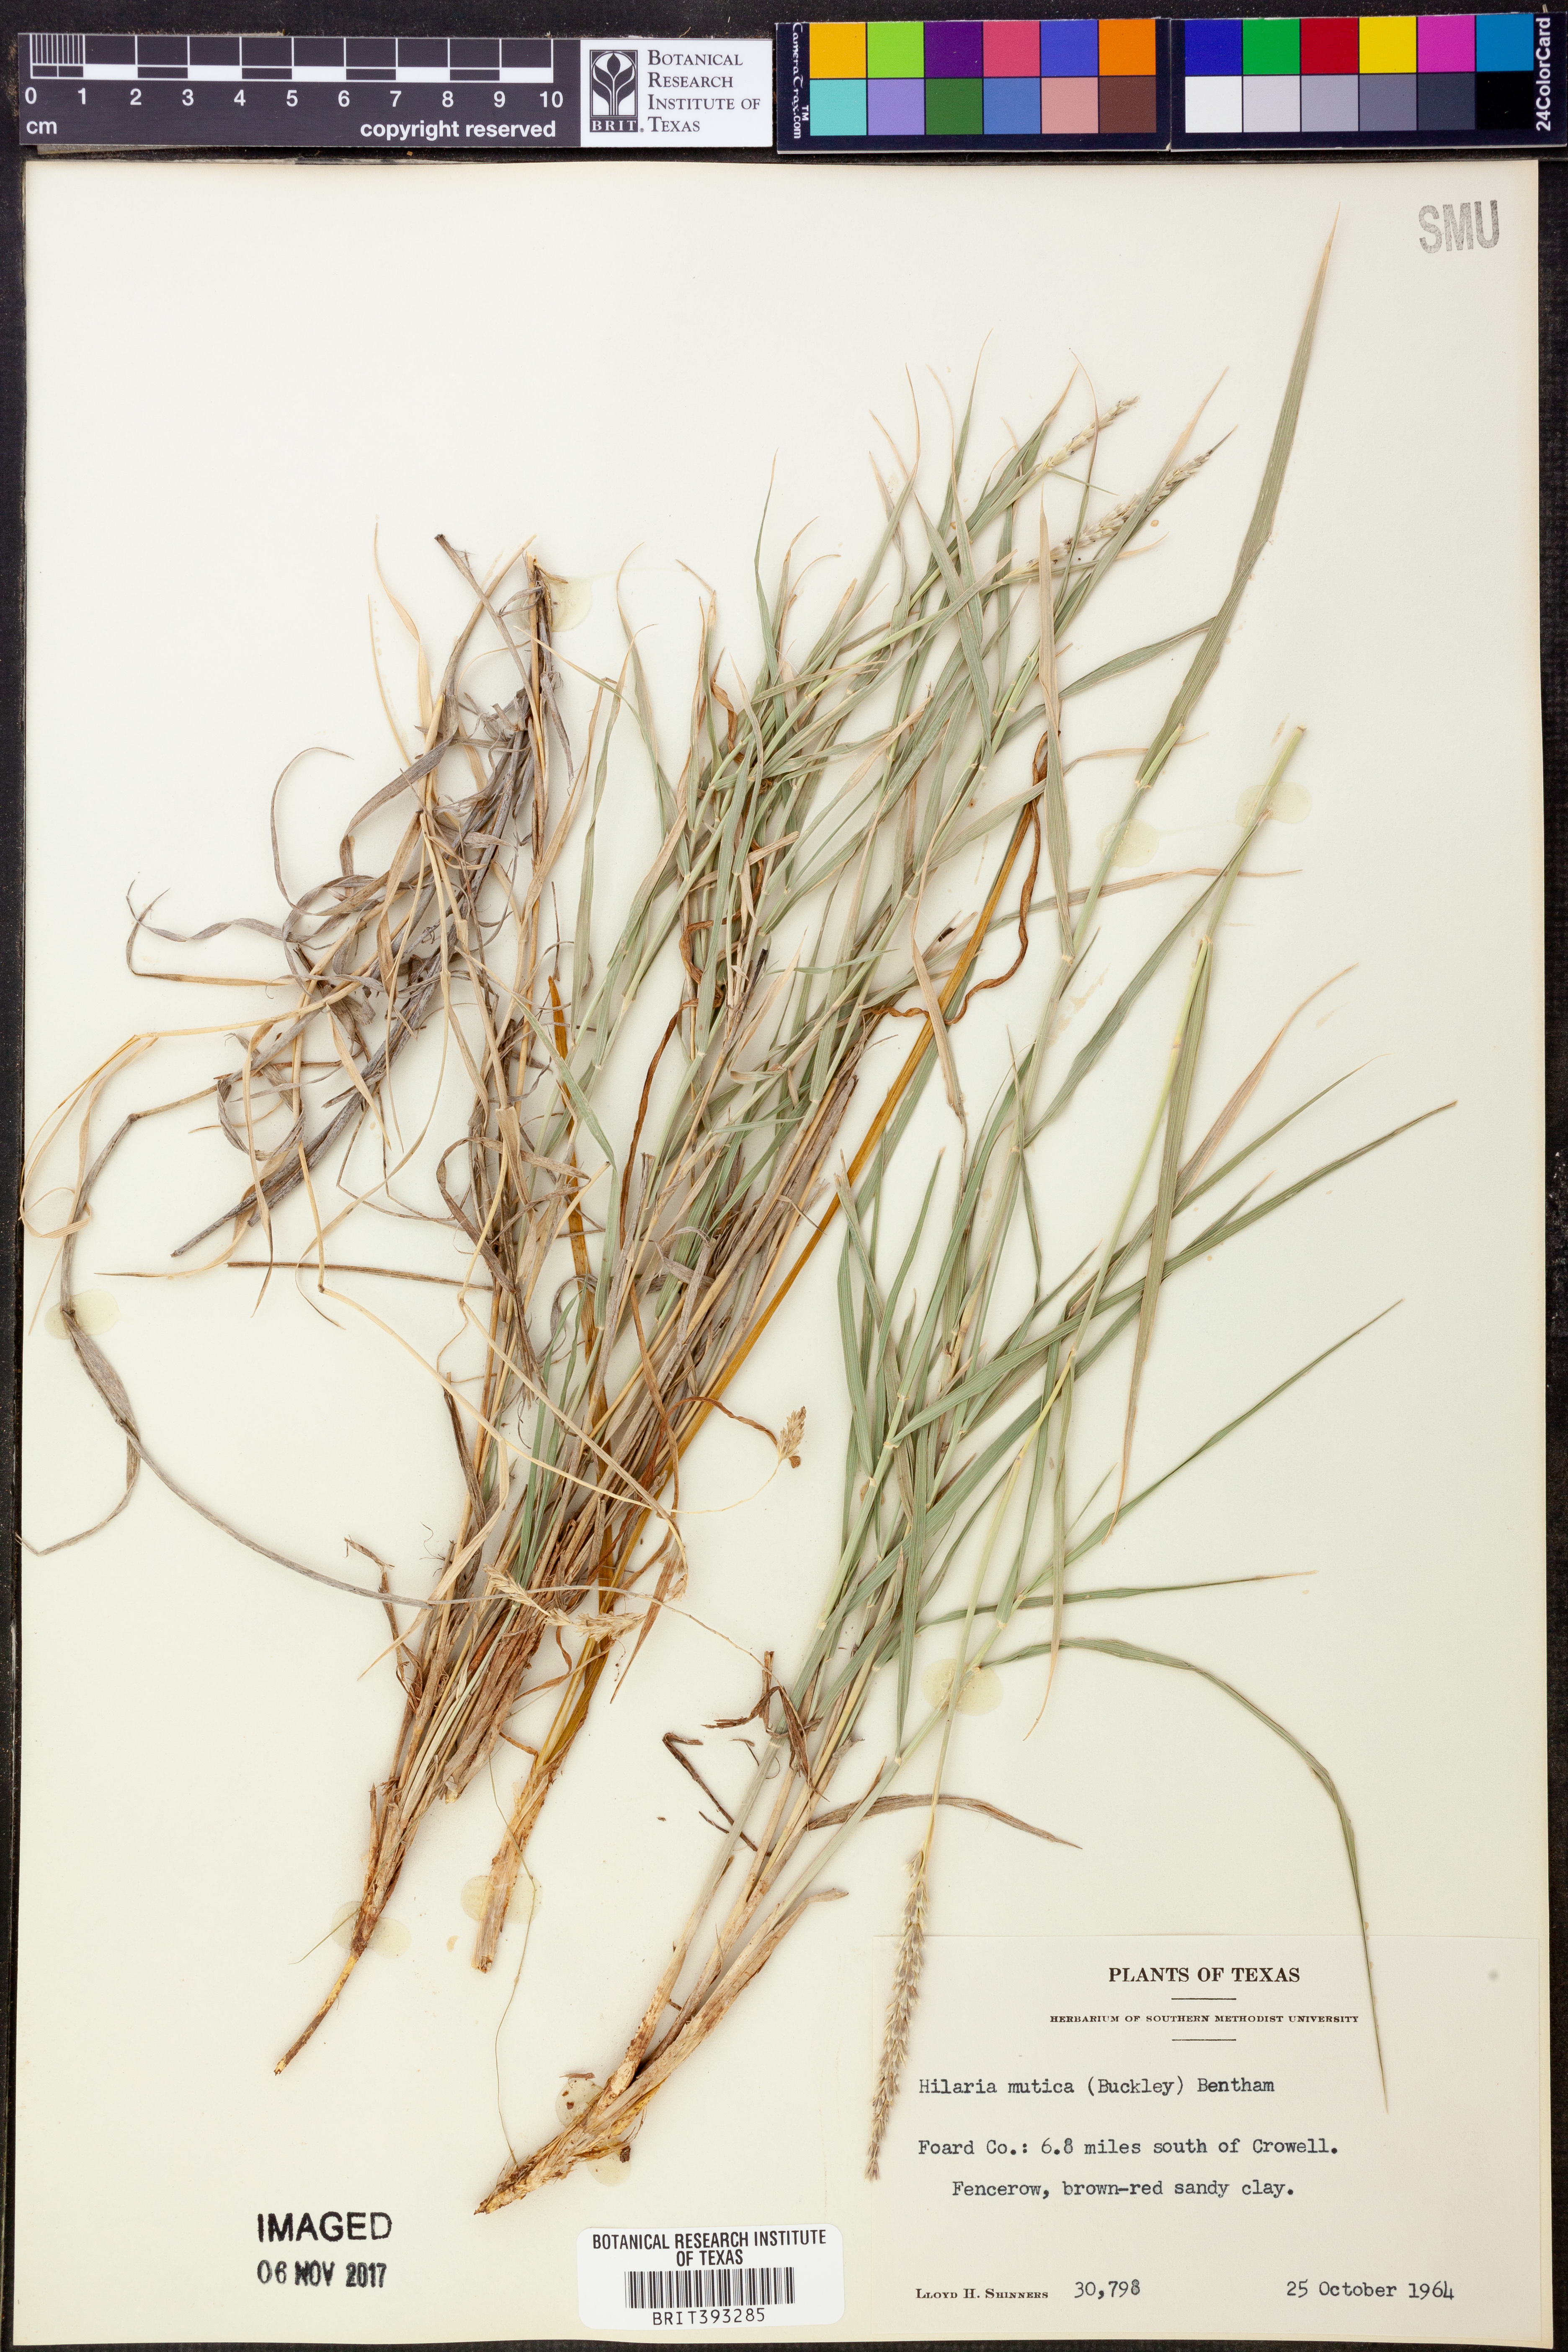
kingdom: Plantae
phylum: Tracheophyta
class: Liliopsida
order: Poales
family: Poaceae
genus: Hilaria
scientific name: Hilaria mutica
